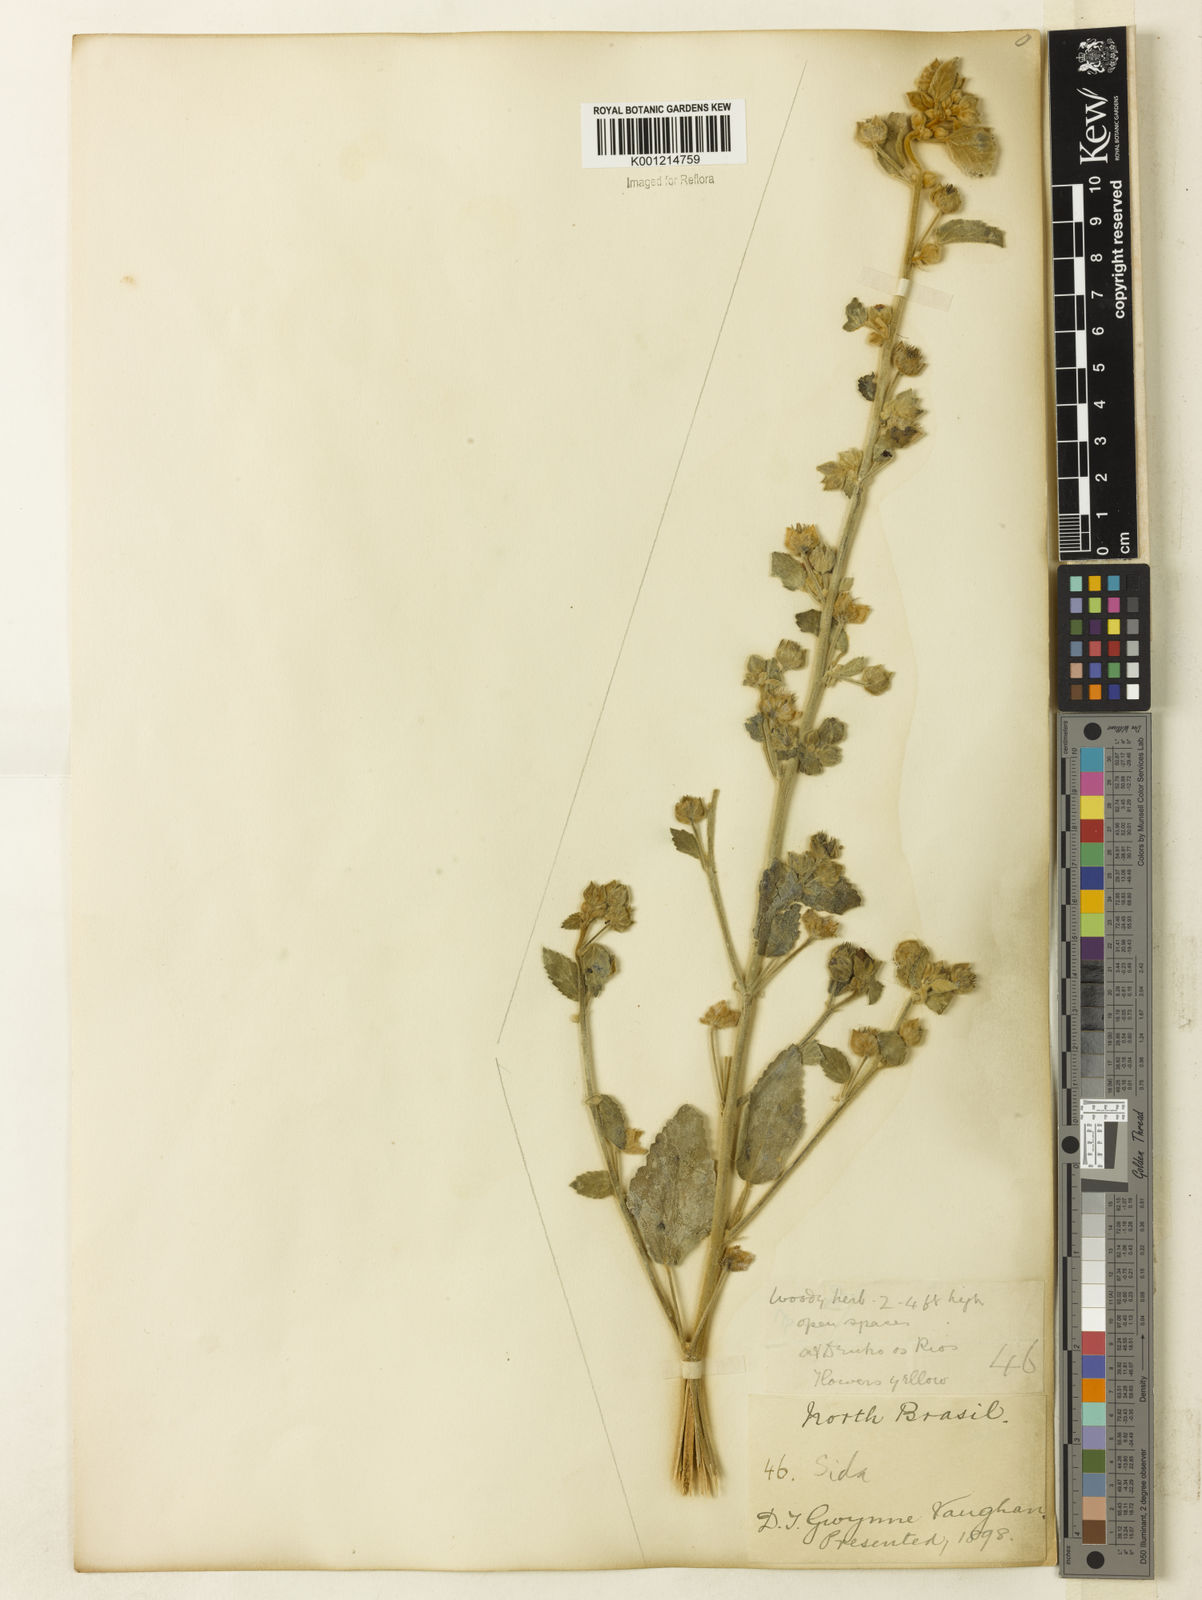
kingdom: Plantae
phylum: Tracheophyta
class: Magnoliopsida
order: Malvales
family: Malvaceae
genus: Sida
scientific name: Sida cordifolia
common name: Ilima
